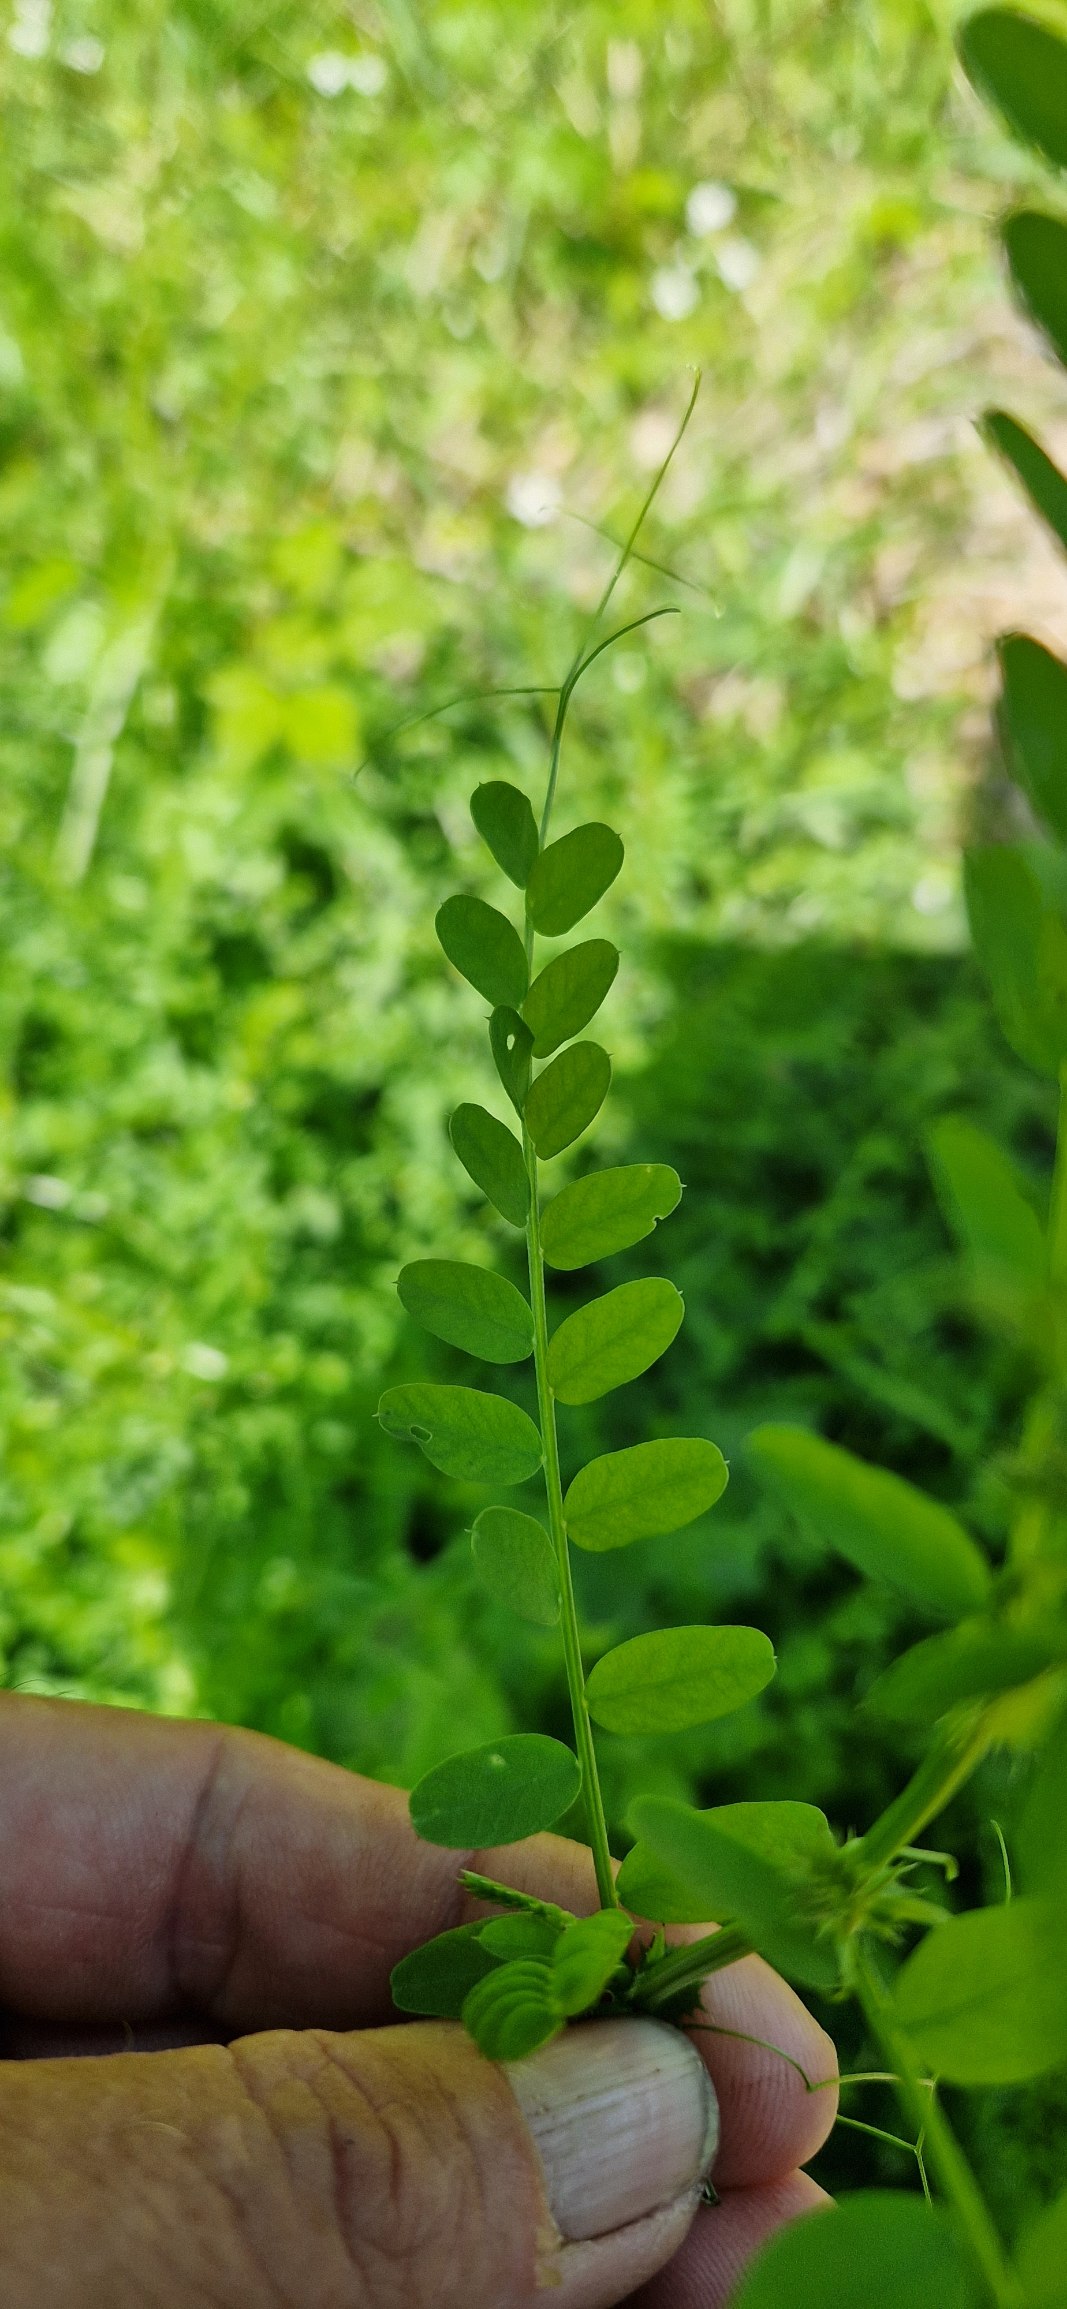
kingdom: Plantae
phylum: Tracheophyta
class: Magnoliopsida
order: Fabales
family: Fabaceae
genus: Vicia
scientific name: Vicia sylvatica
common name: Skov-vikke
